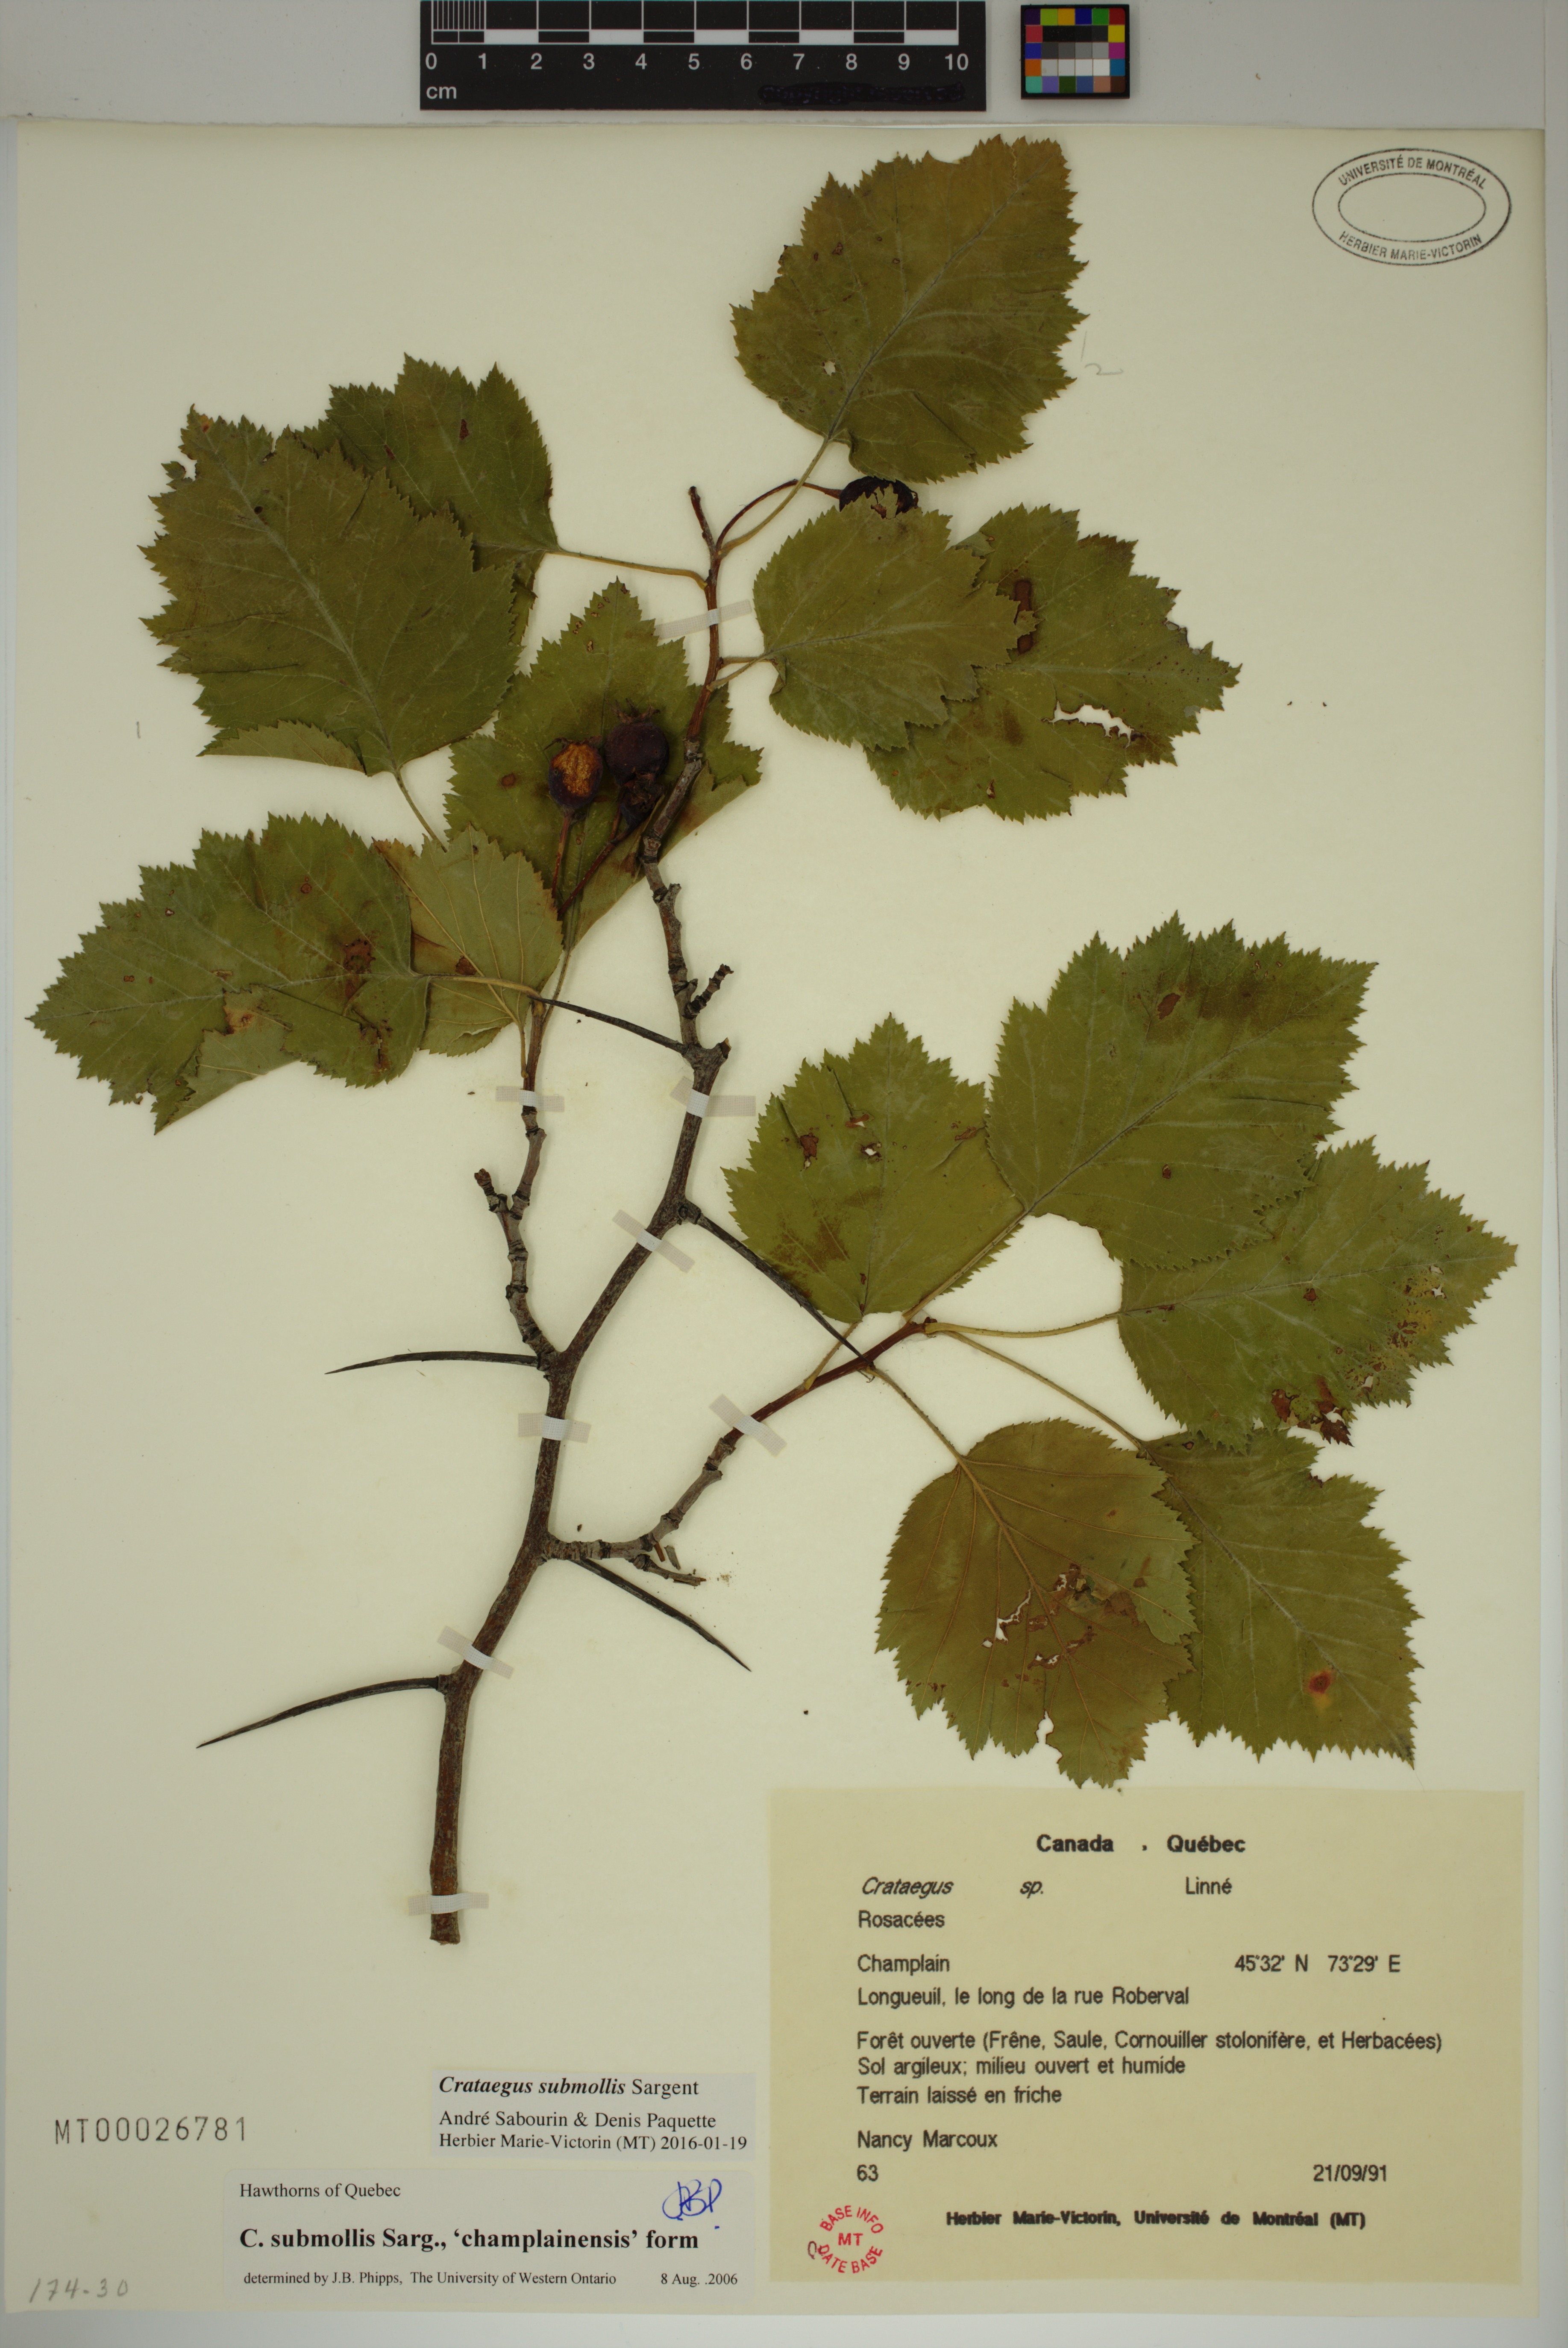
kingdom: Plantae
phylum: Tracheophyta
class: Magnoliopsida
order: Rosales
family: Rosaceae
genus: Crataegus
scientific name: Crataegus submollis
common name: Hairy cockspurthorn
